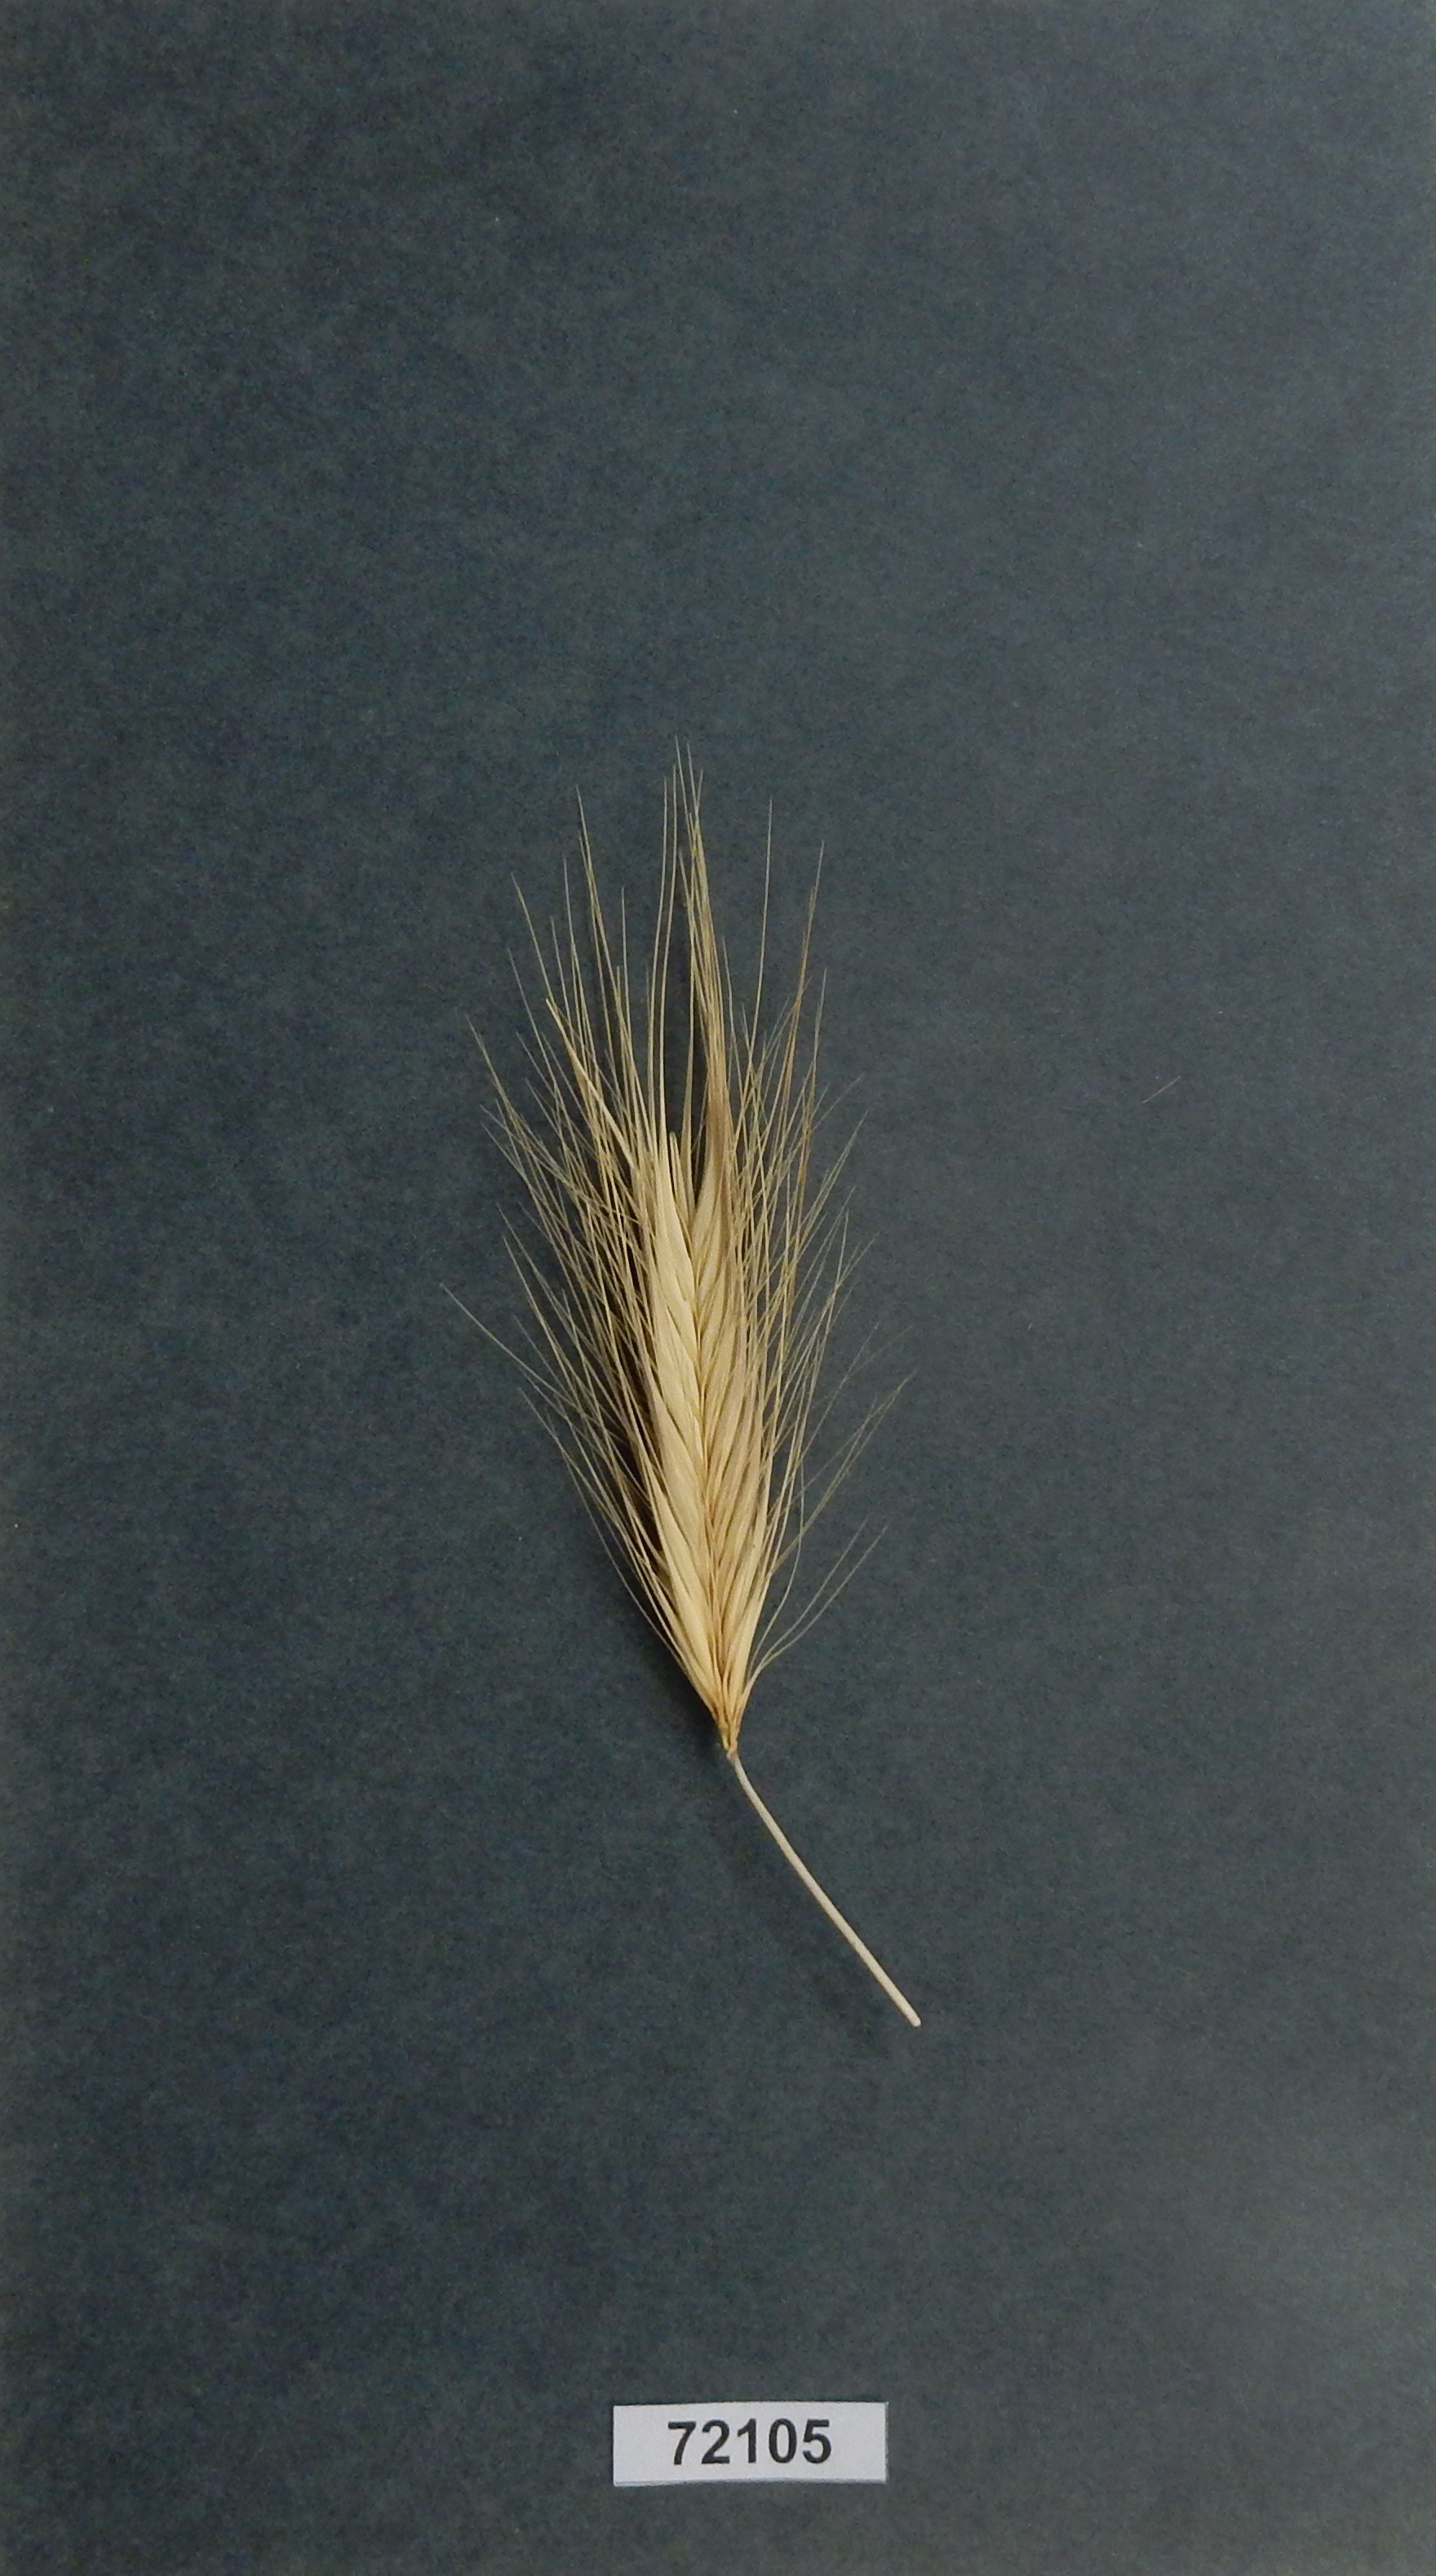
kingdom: Plantae
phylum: Tracheophyta
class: Liliopsida
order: Poales
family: Poaceae
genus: Hordeum
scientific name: Hordeum murinum
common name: Wall Barley
